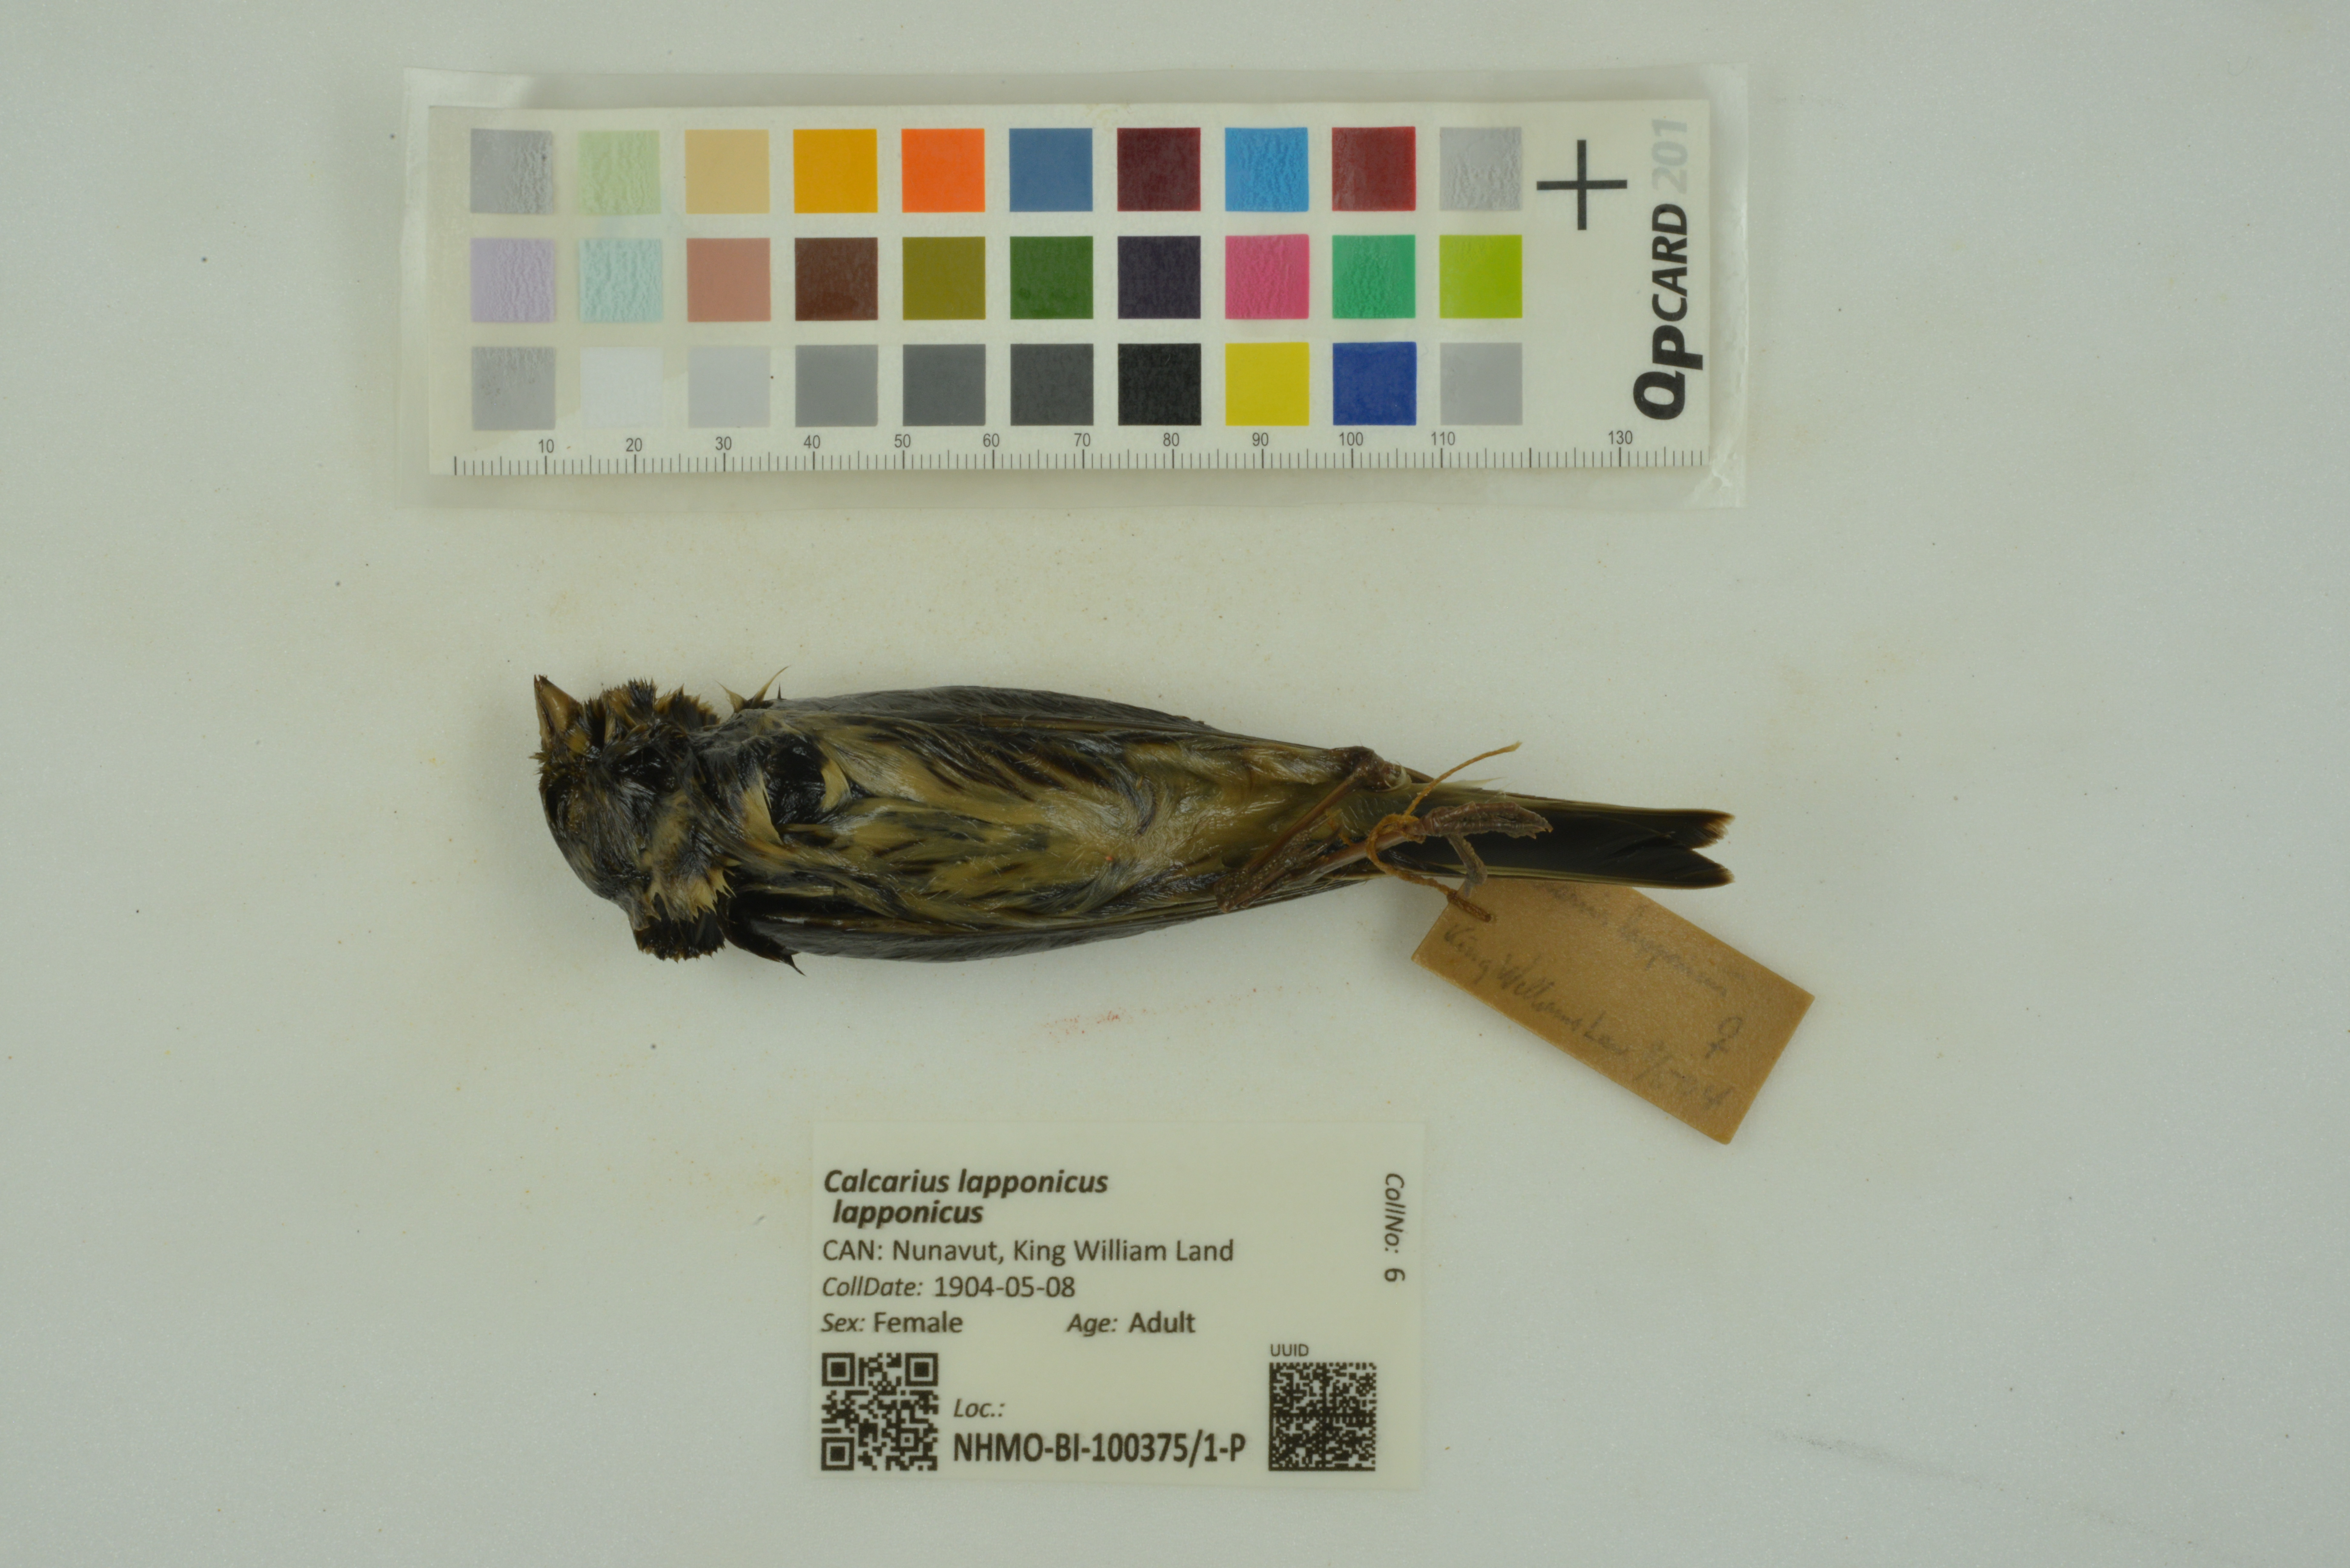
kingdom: Animalia
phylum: Chordata
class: Aves
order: Passeriformes
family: Calcariidae
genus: Calcarius
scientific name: Calcarius lapponicus
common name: Lapland longspur
